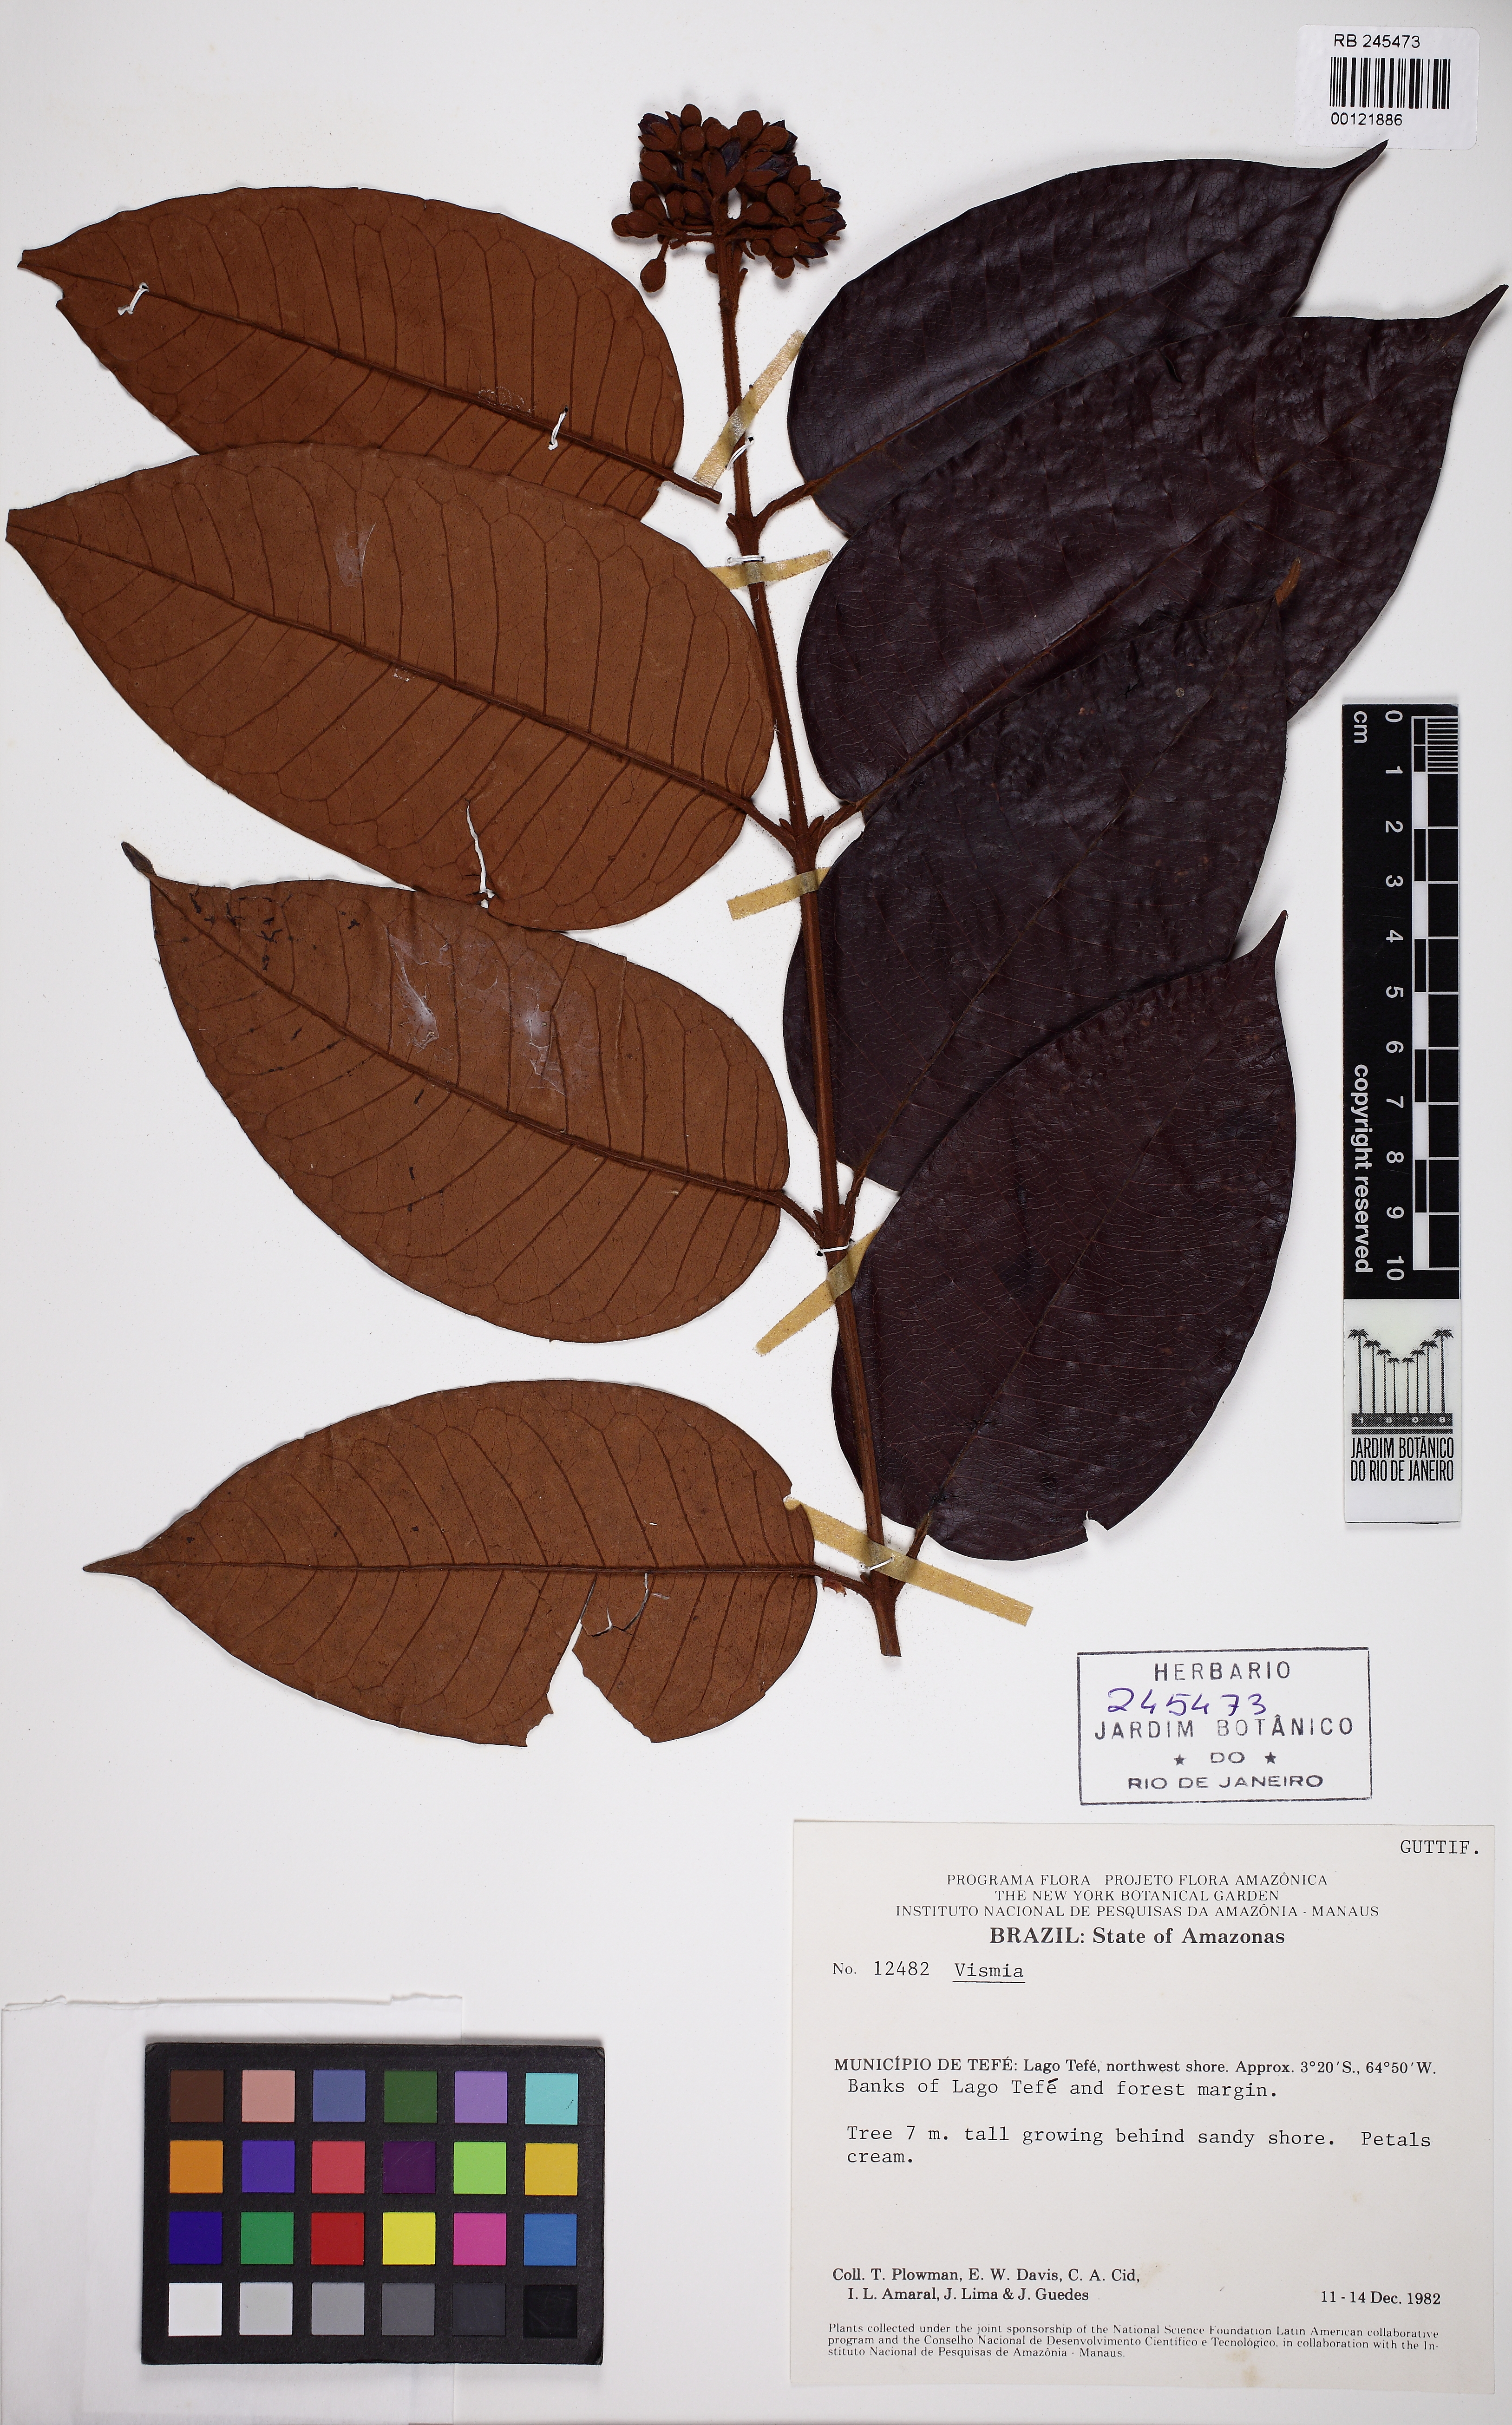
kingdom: Plantae
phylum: Tracheophyta
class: Magnoliopsida
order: Malpighiales
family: Hypericaceae
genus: Vismia
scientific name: Vismia ferruginea
